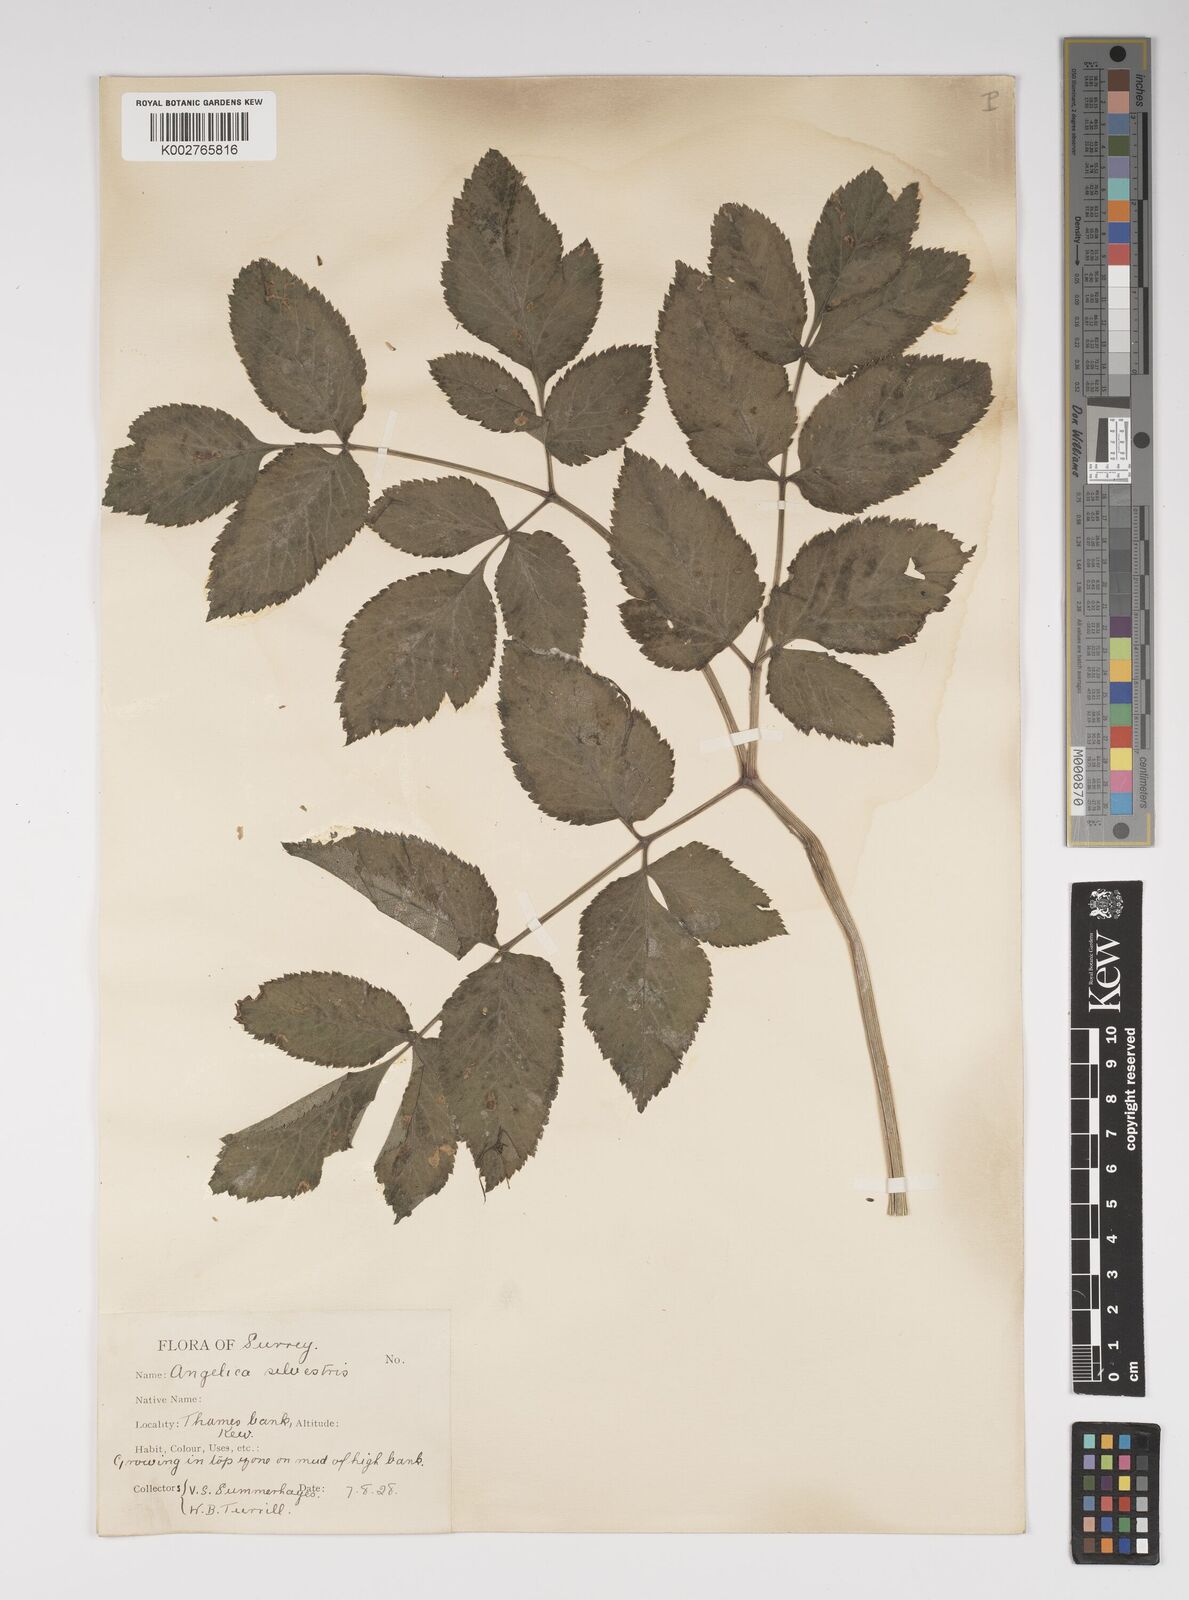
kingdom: Plantae
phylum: Tracheophyta
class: Magnoliopsida
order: Apiales
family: Apiaceae
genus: Angelica
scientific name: Angelica sylvestris
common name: Wild angelica
